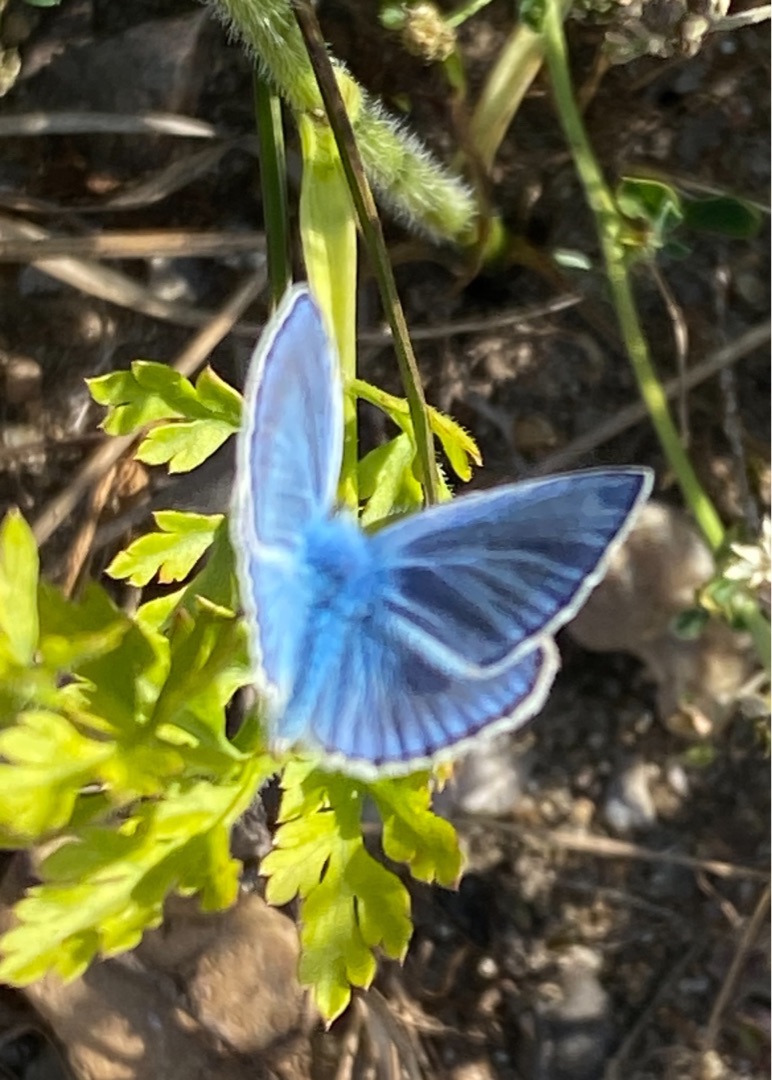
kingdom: Animalia
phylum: Arthropoda
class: Insecta
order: Lepidoptera
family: Lycaenidae
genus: Polyommatus
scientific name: Polyommatus icarus
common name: Almindelig blåfugl
